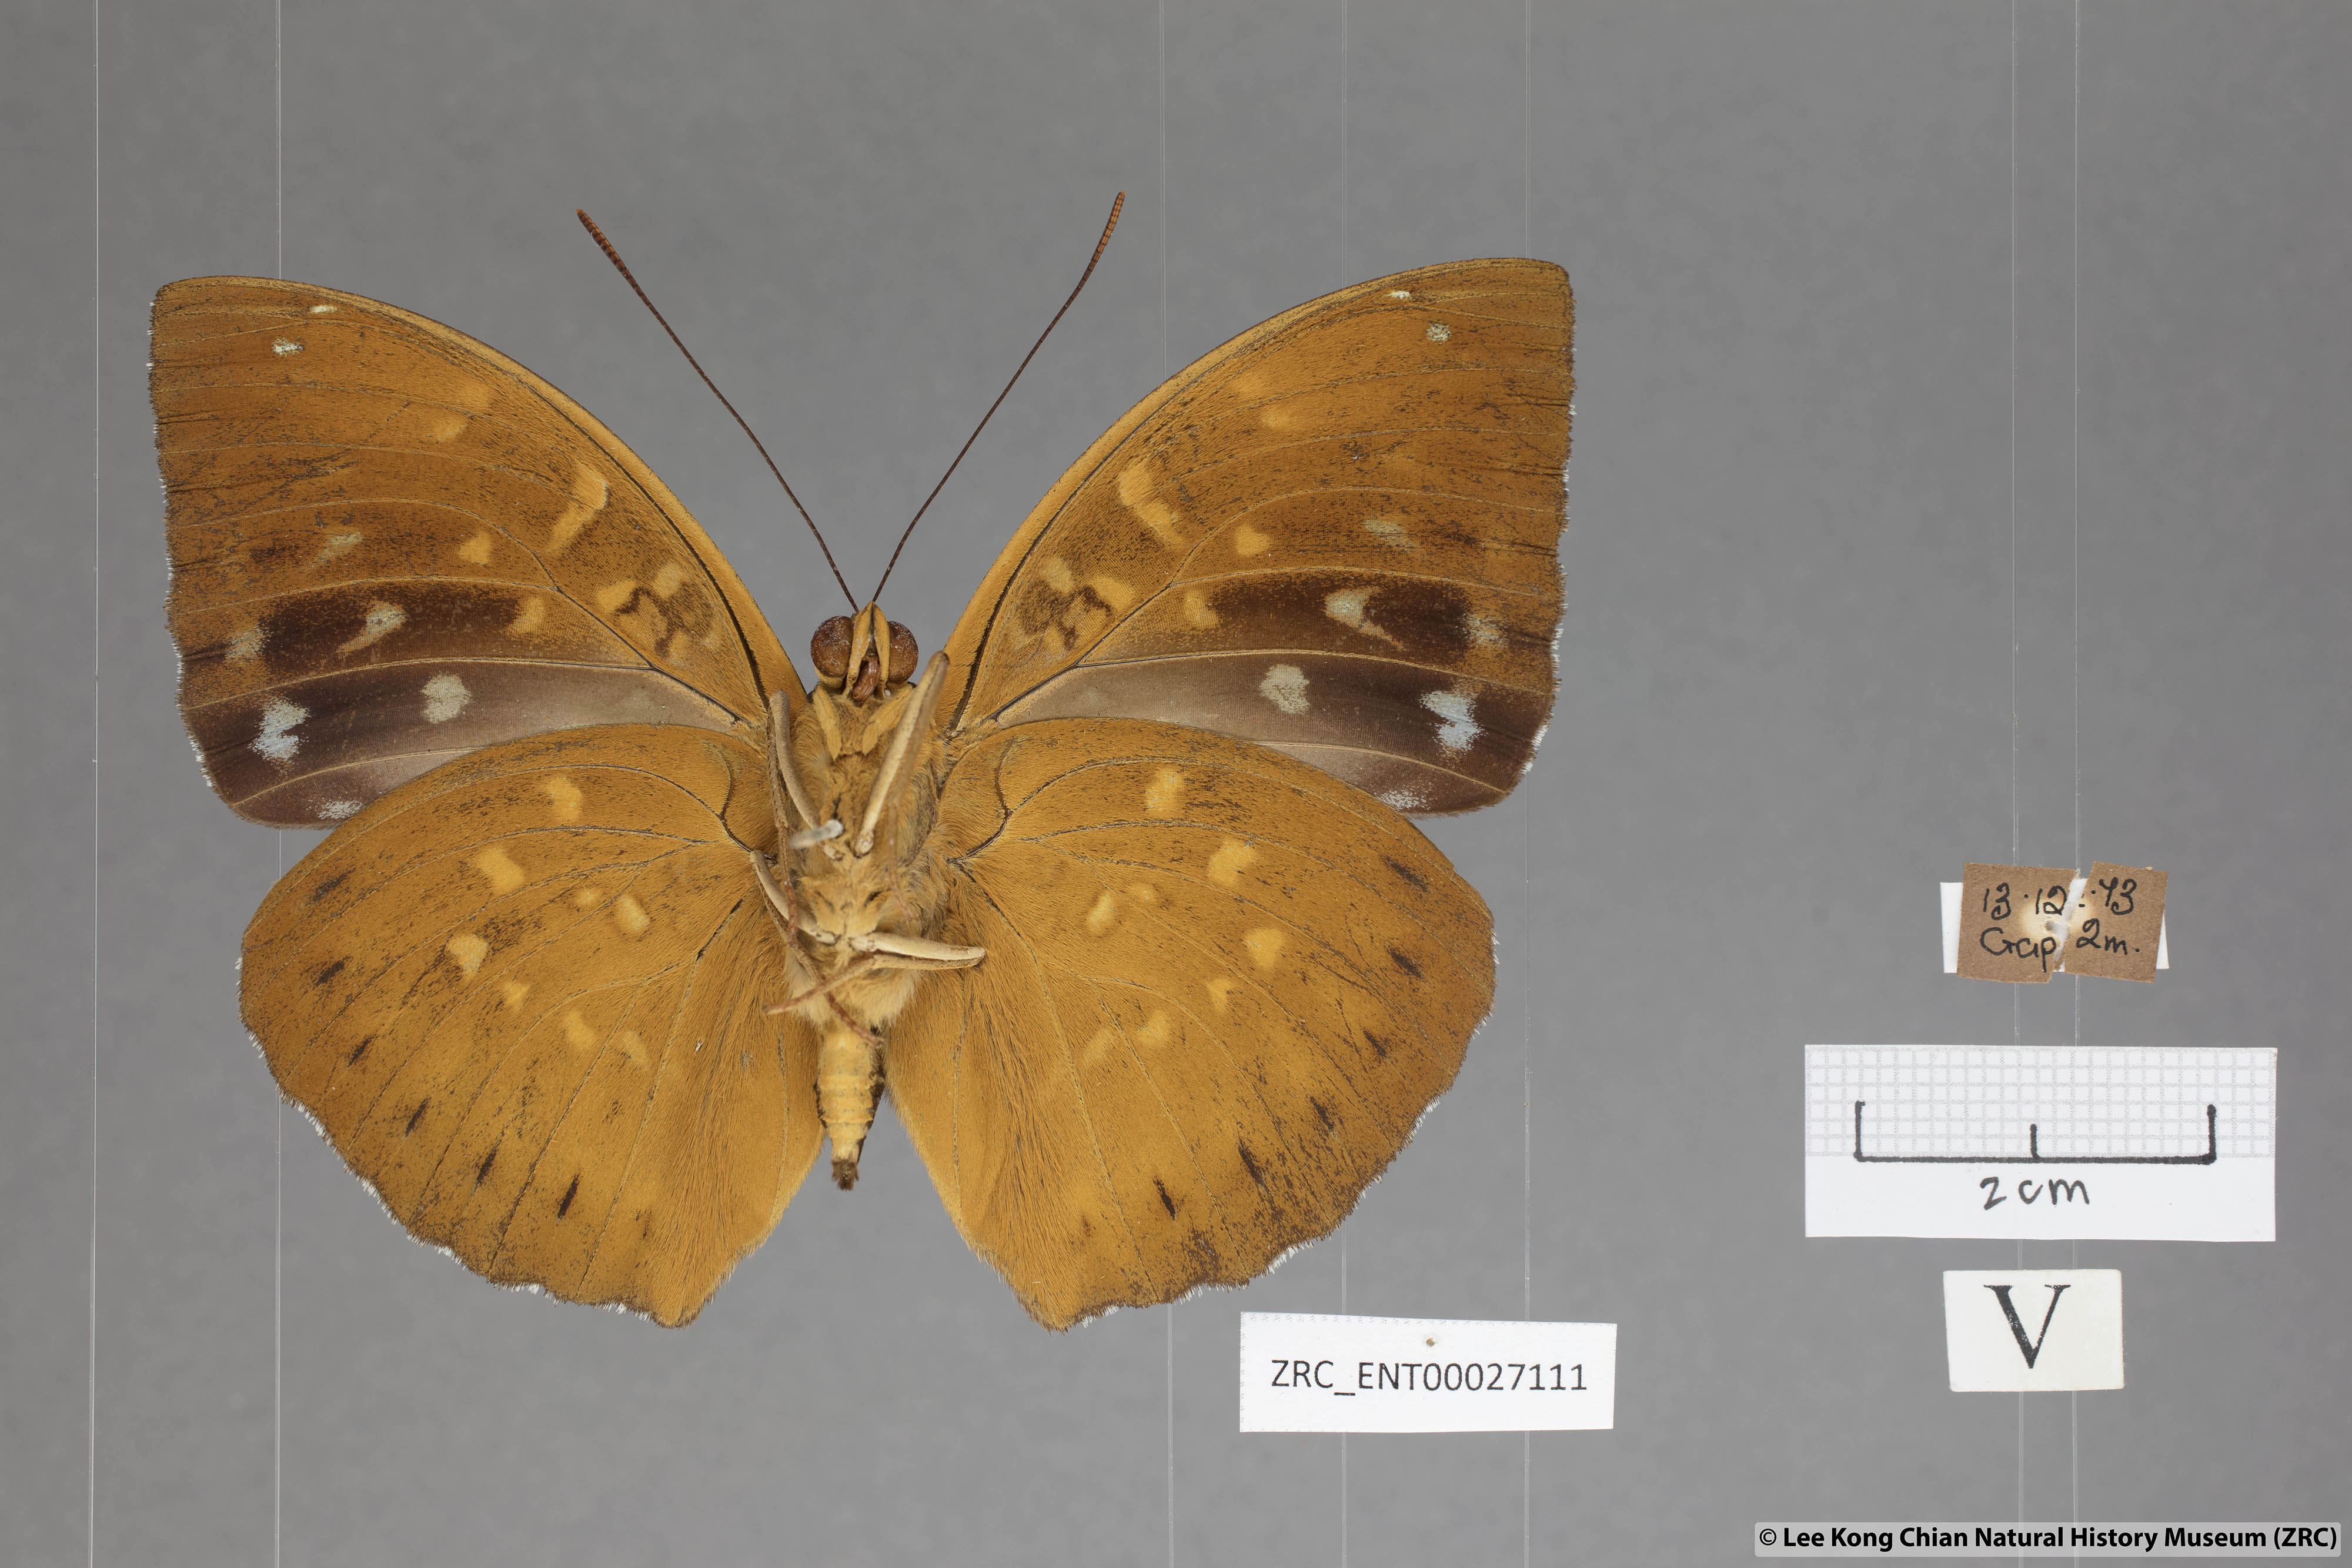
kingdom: Animalia
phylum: Arthropoda
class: Insecta
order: Lepidoptera
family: Nymphalidae
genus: Lexias
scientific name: Lexias dirtea
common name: Black-tipped archduke
